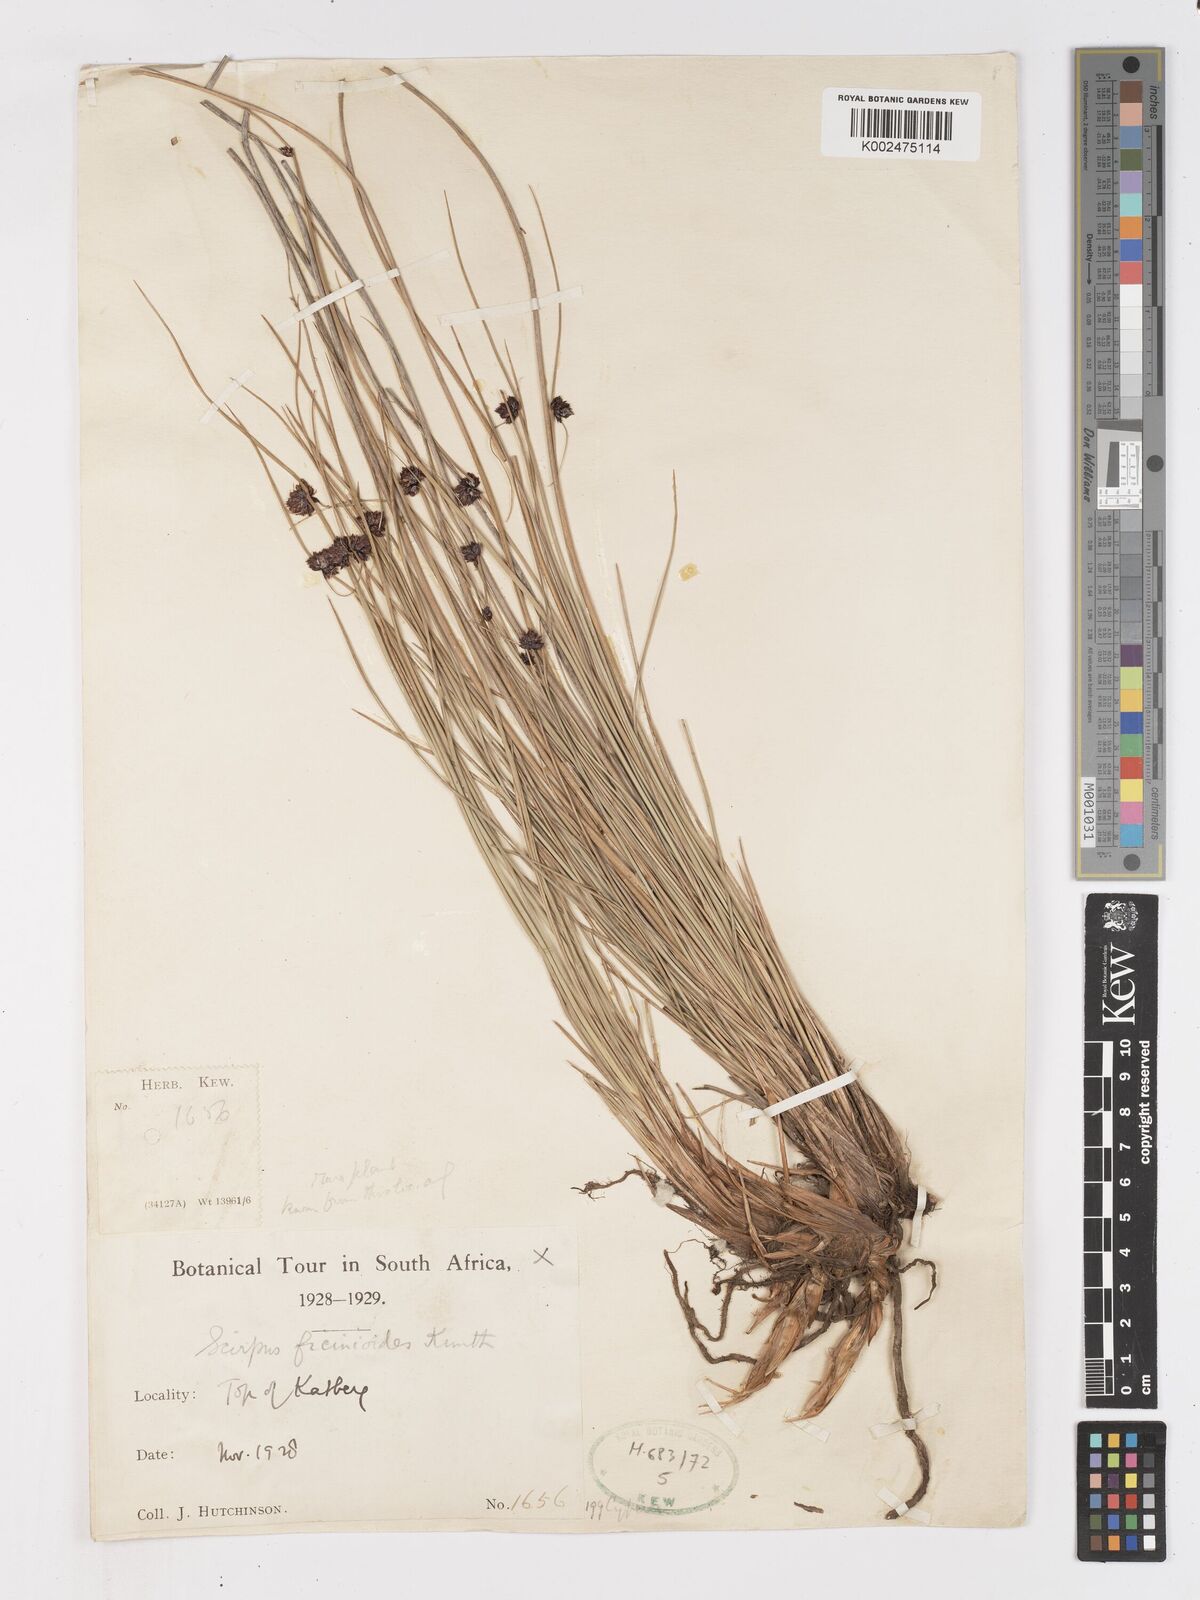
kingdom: Plantae
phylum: Tracheophyta
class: Liliopsida
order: Poales
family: Cyperaceae
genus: Ficinia
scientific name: Ficinia filiformis
